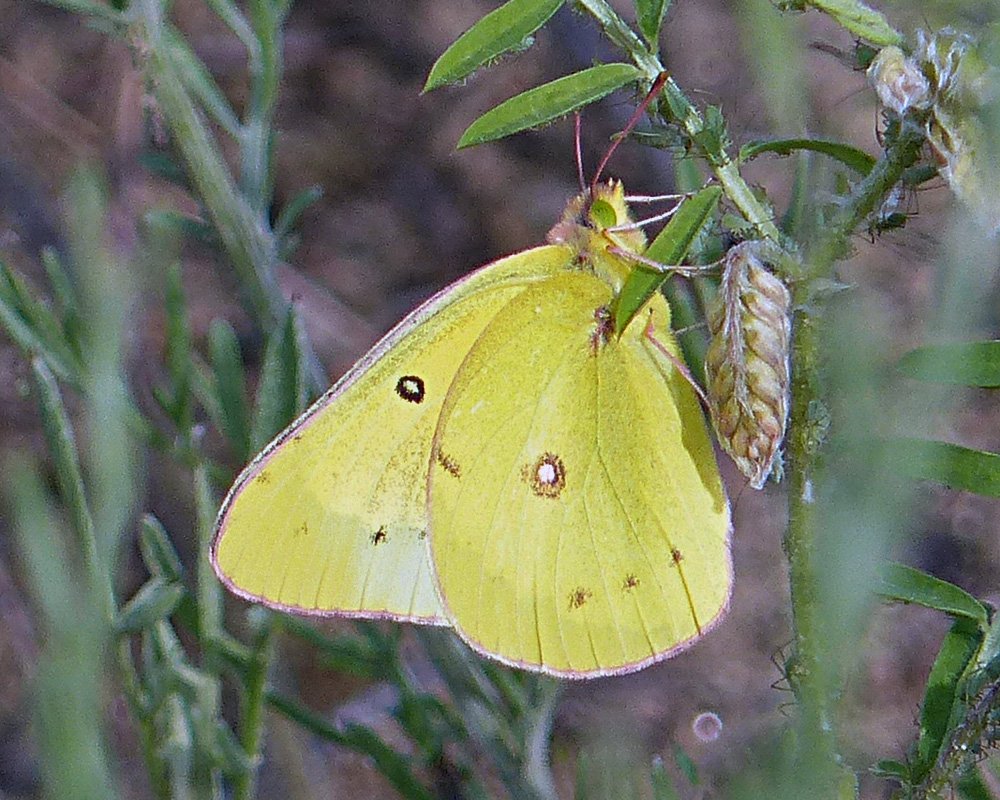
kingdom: Animalia
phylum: Arthropoda
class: Insecta
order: Lepidoptera
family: Pieridae
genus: Colias
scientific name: Colias eurytheme
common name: Orange Sulphur
